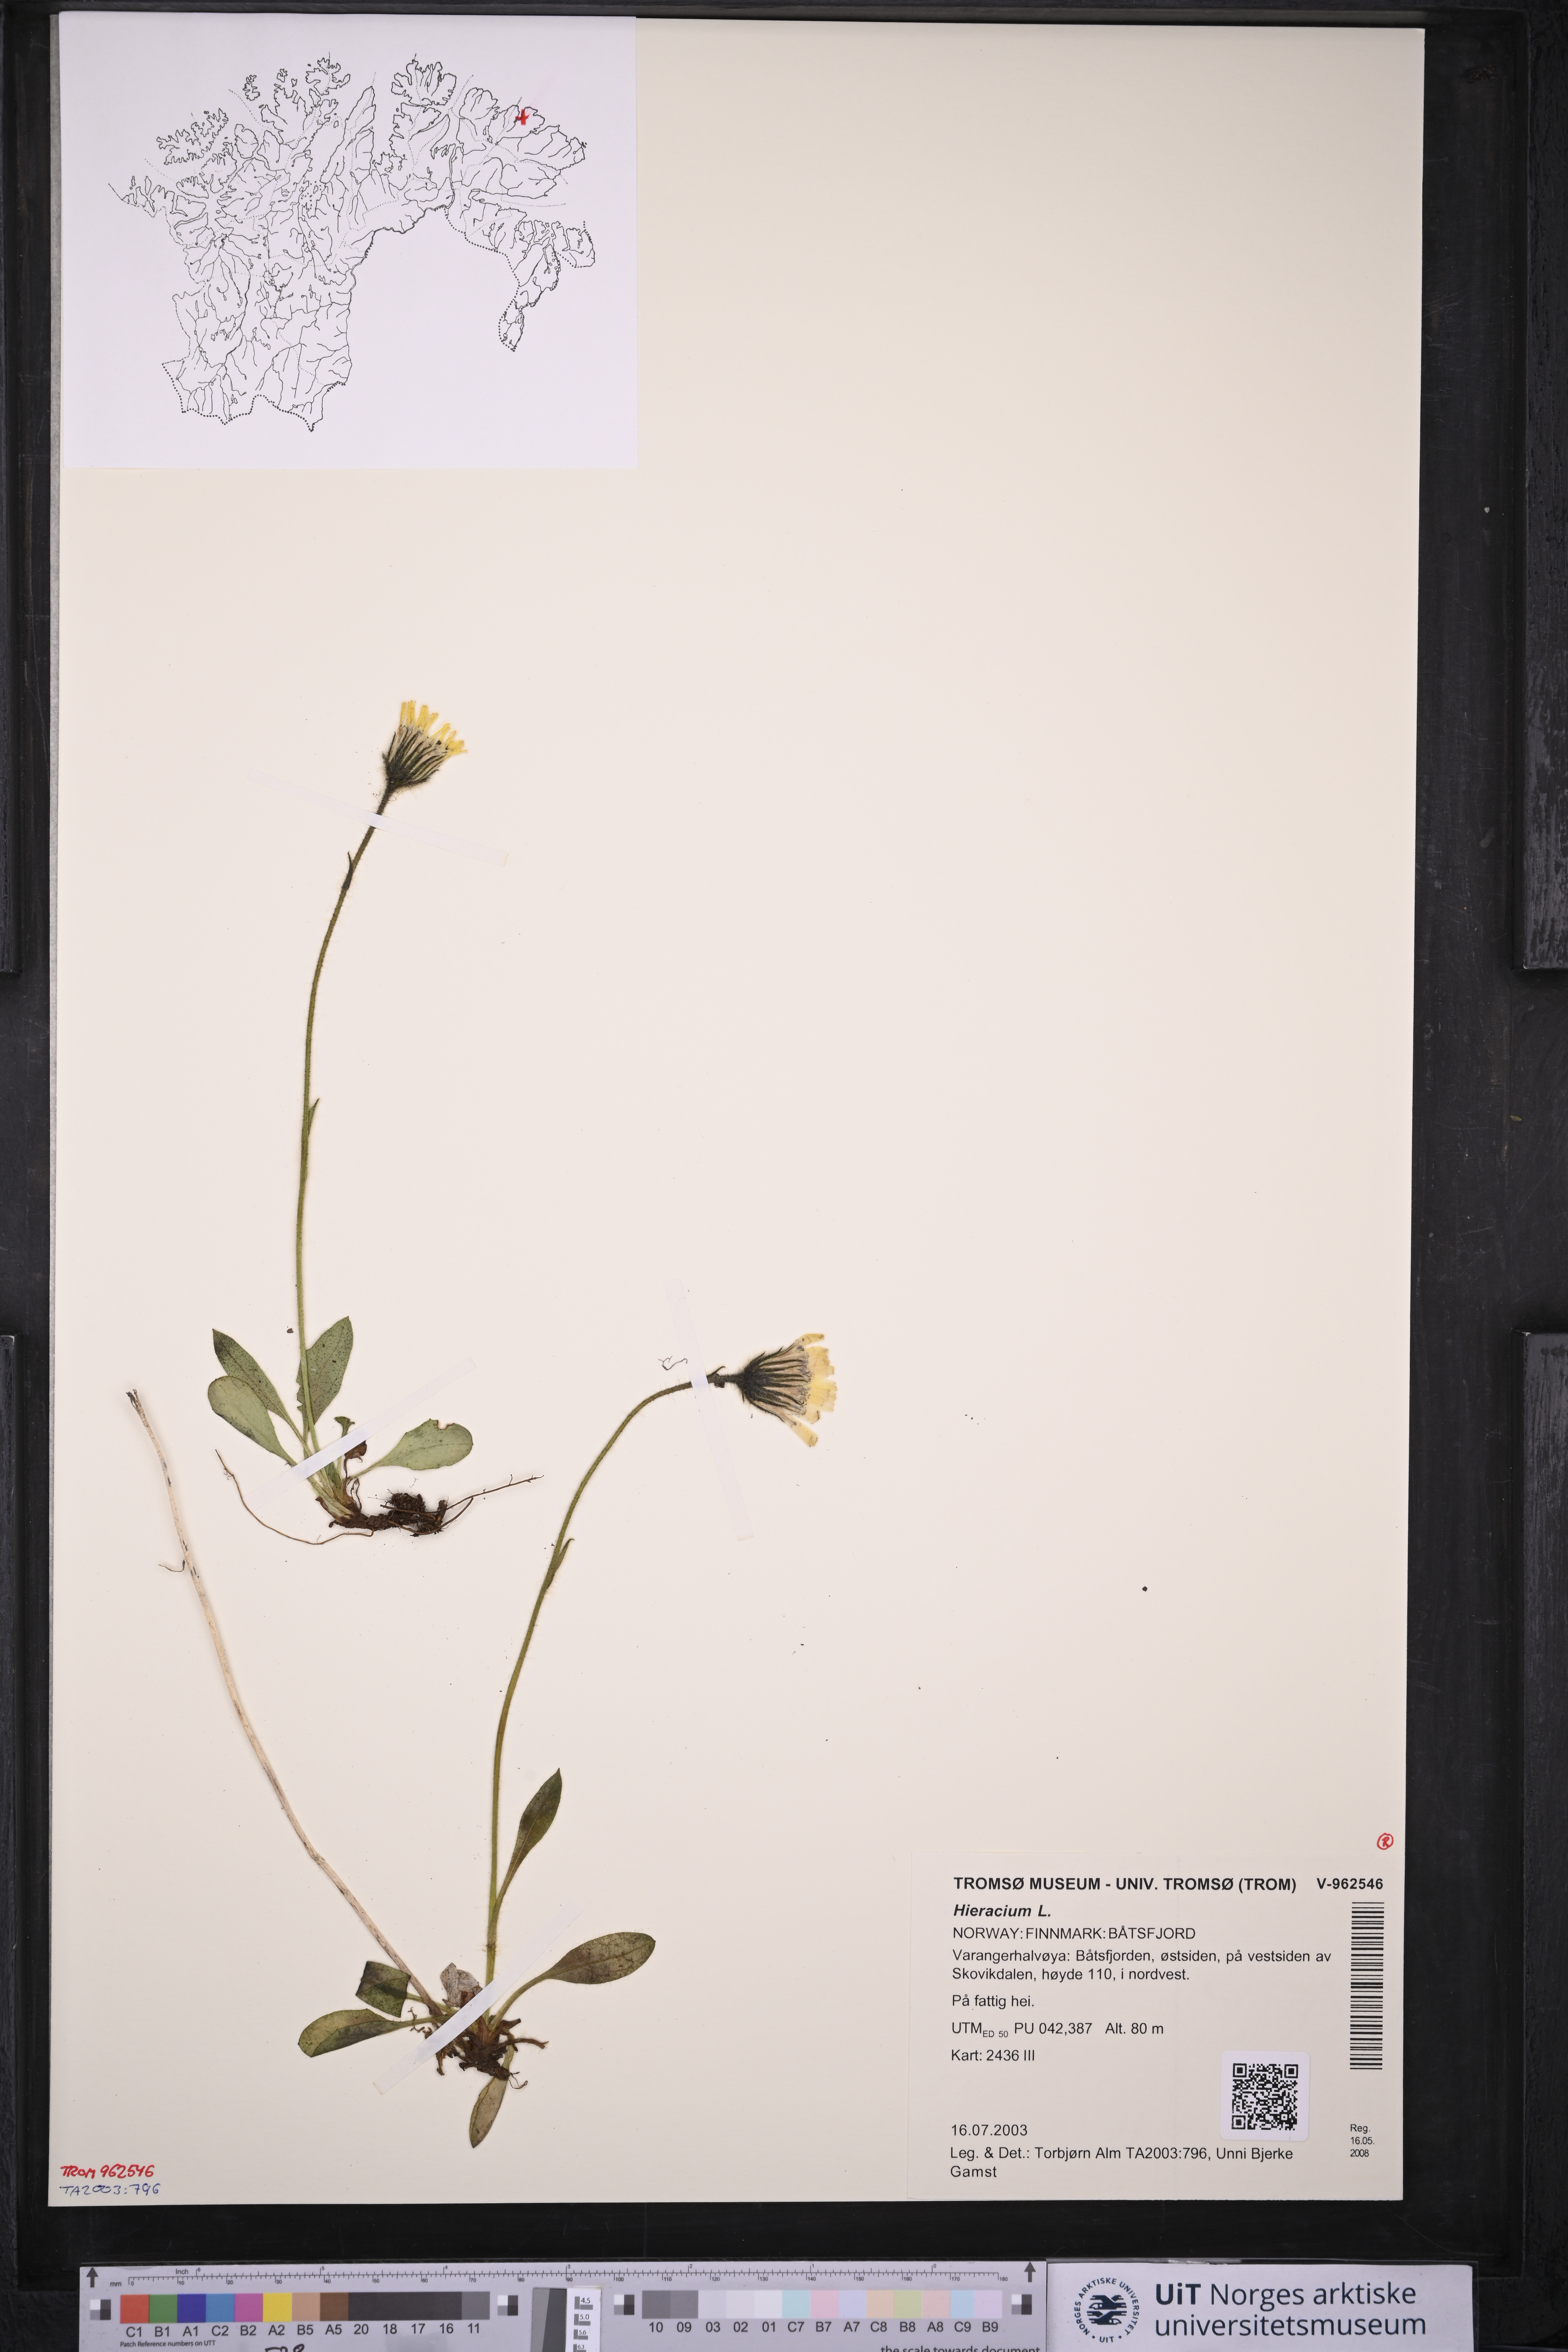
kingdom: Plantae
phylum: Tracheophyta
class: Magnoliopsida
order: Asterales
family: Asteraceae
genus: Hieracium
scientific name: Hieracium
